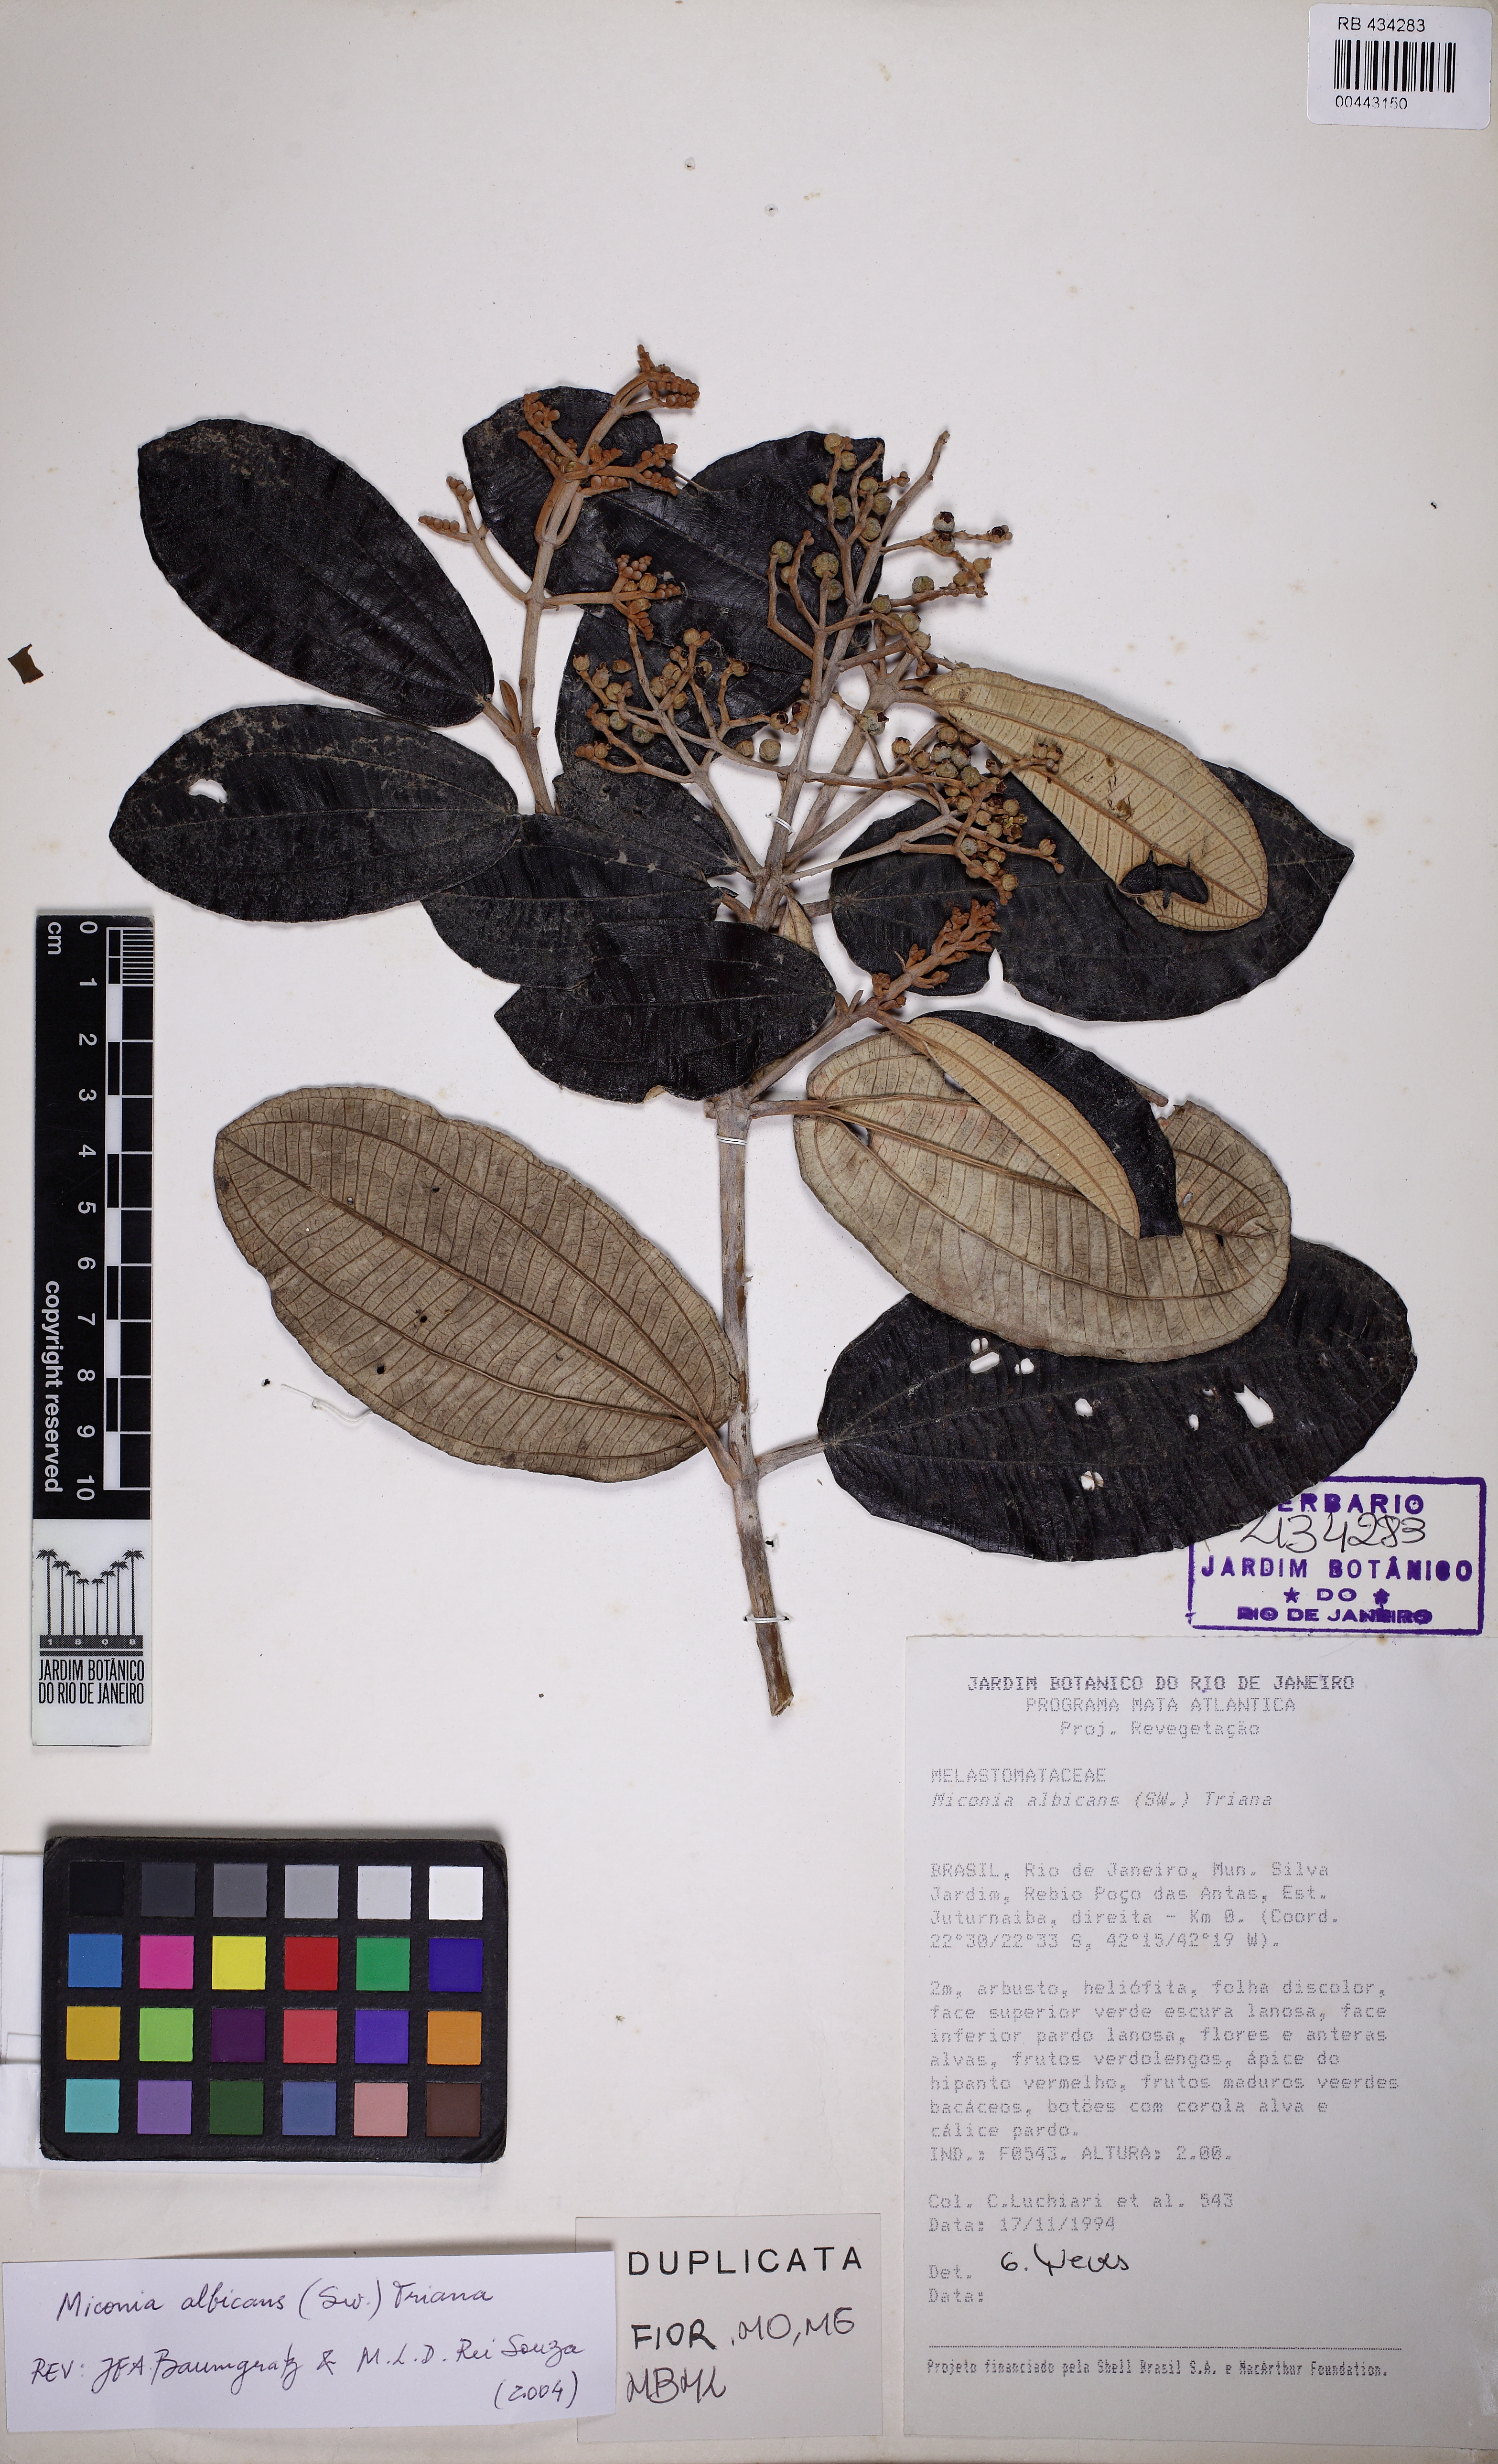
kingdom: Plantae
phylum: Tracheophyta
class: Magnoliopsida
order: Myrtales
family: Melastomataceae
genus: Miconia
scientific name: Miconia albicans
